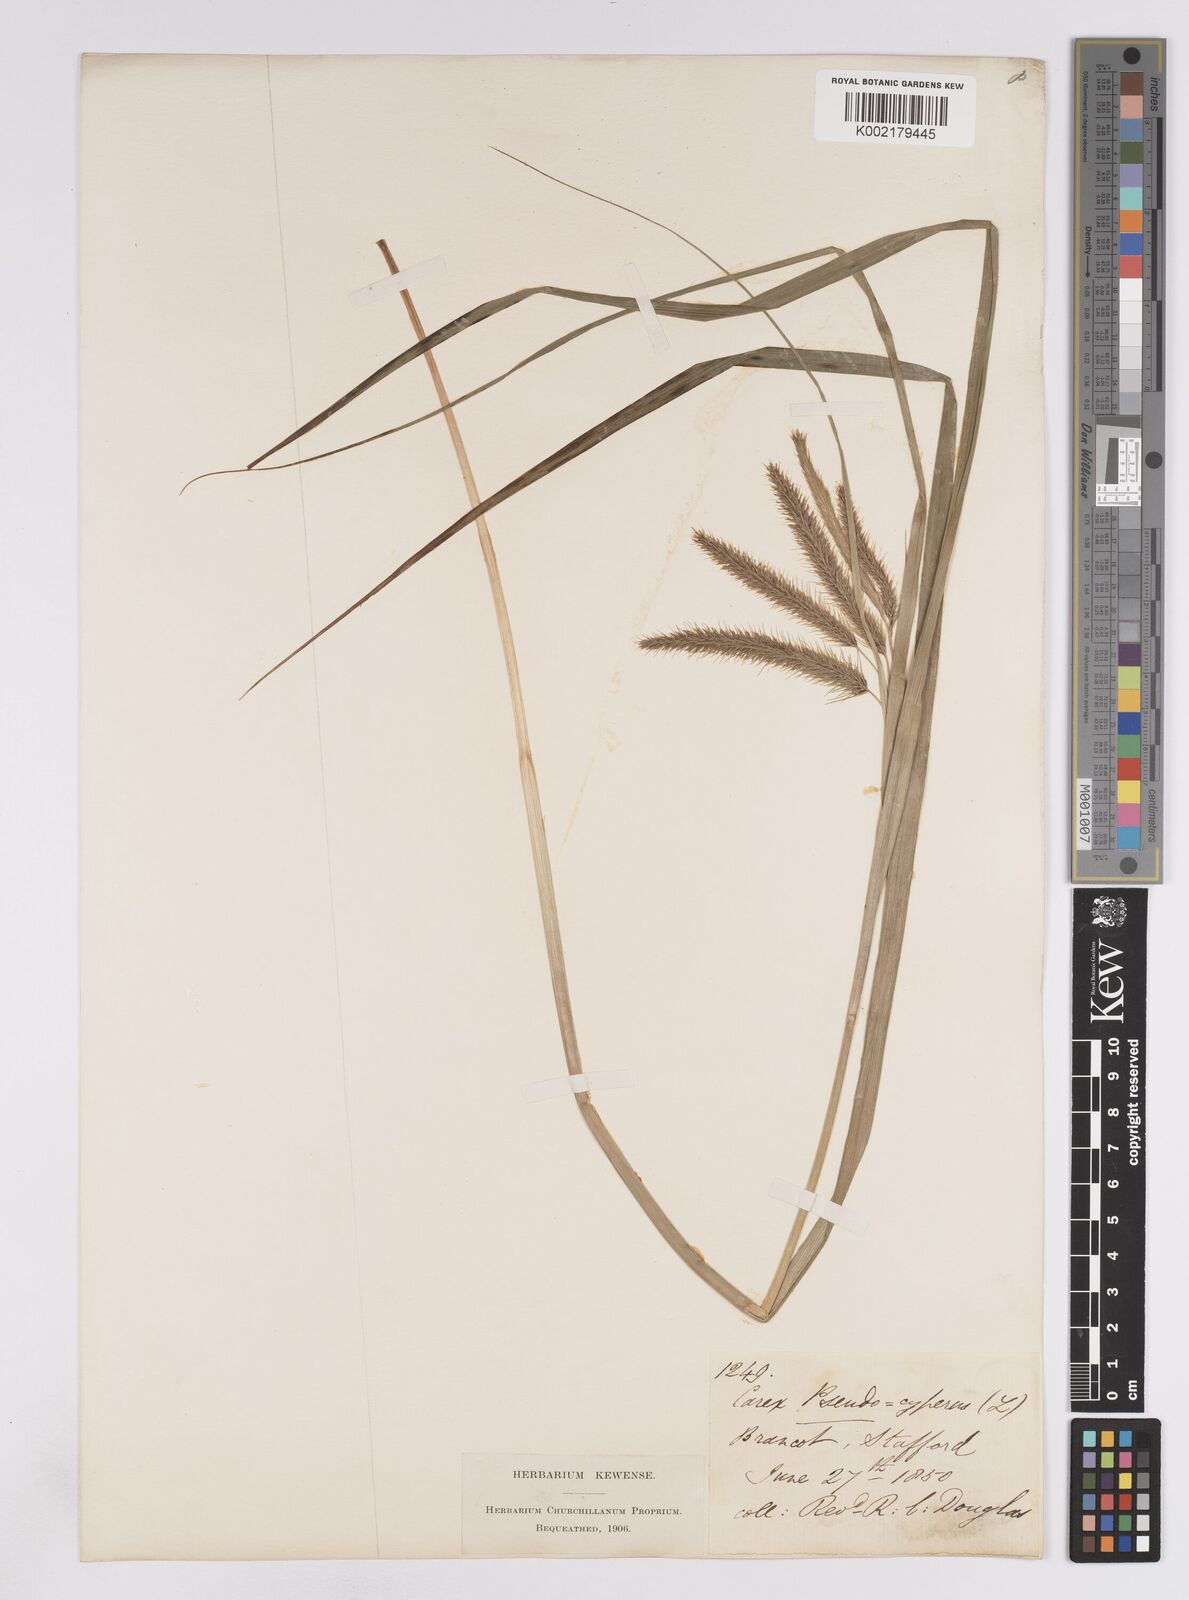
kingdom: Plantae
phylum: Tracheophyta
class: Liliopsida
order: Poales
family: Cyperaceae
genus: Carex
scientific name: Carex pseudocyperus
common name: Cyperus sedge
